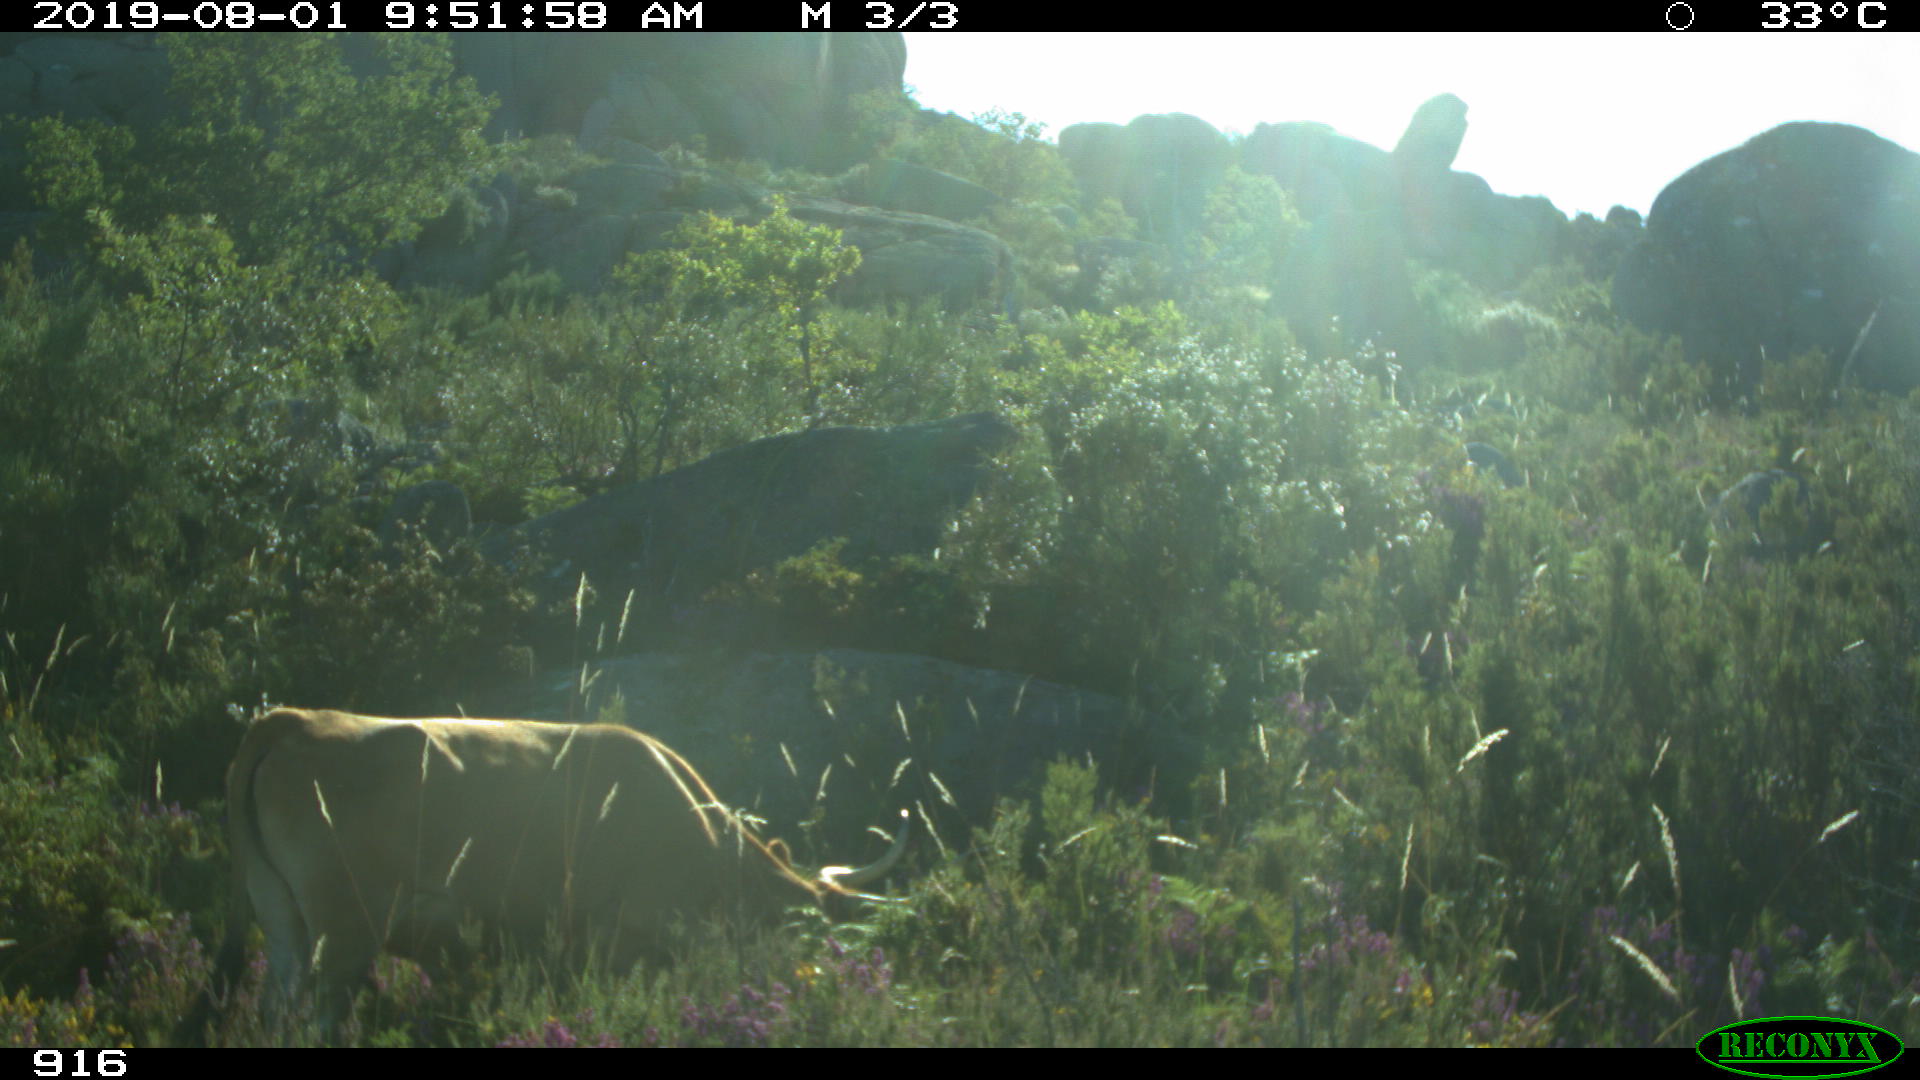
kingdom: Animalia
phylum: Chordata
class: Mammalia
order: Artiodactyla
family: Bovidae
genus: Bos
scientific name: Bos taurus
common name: Domesticated cattle
